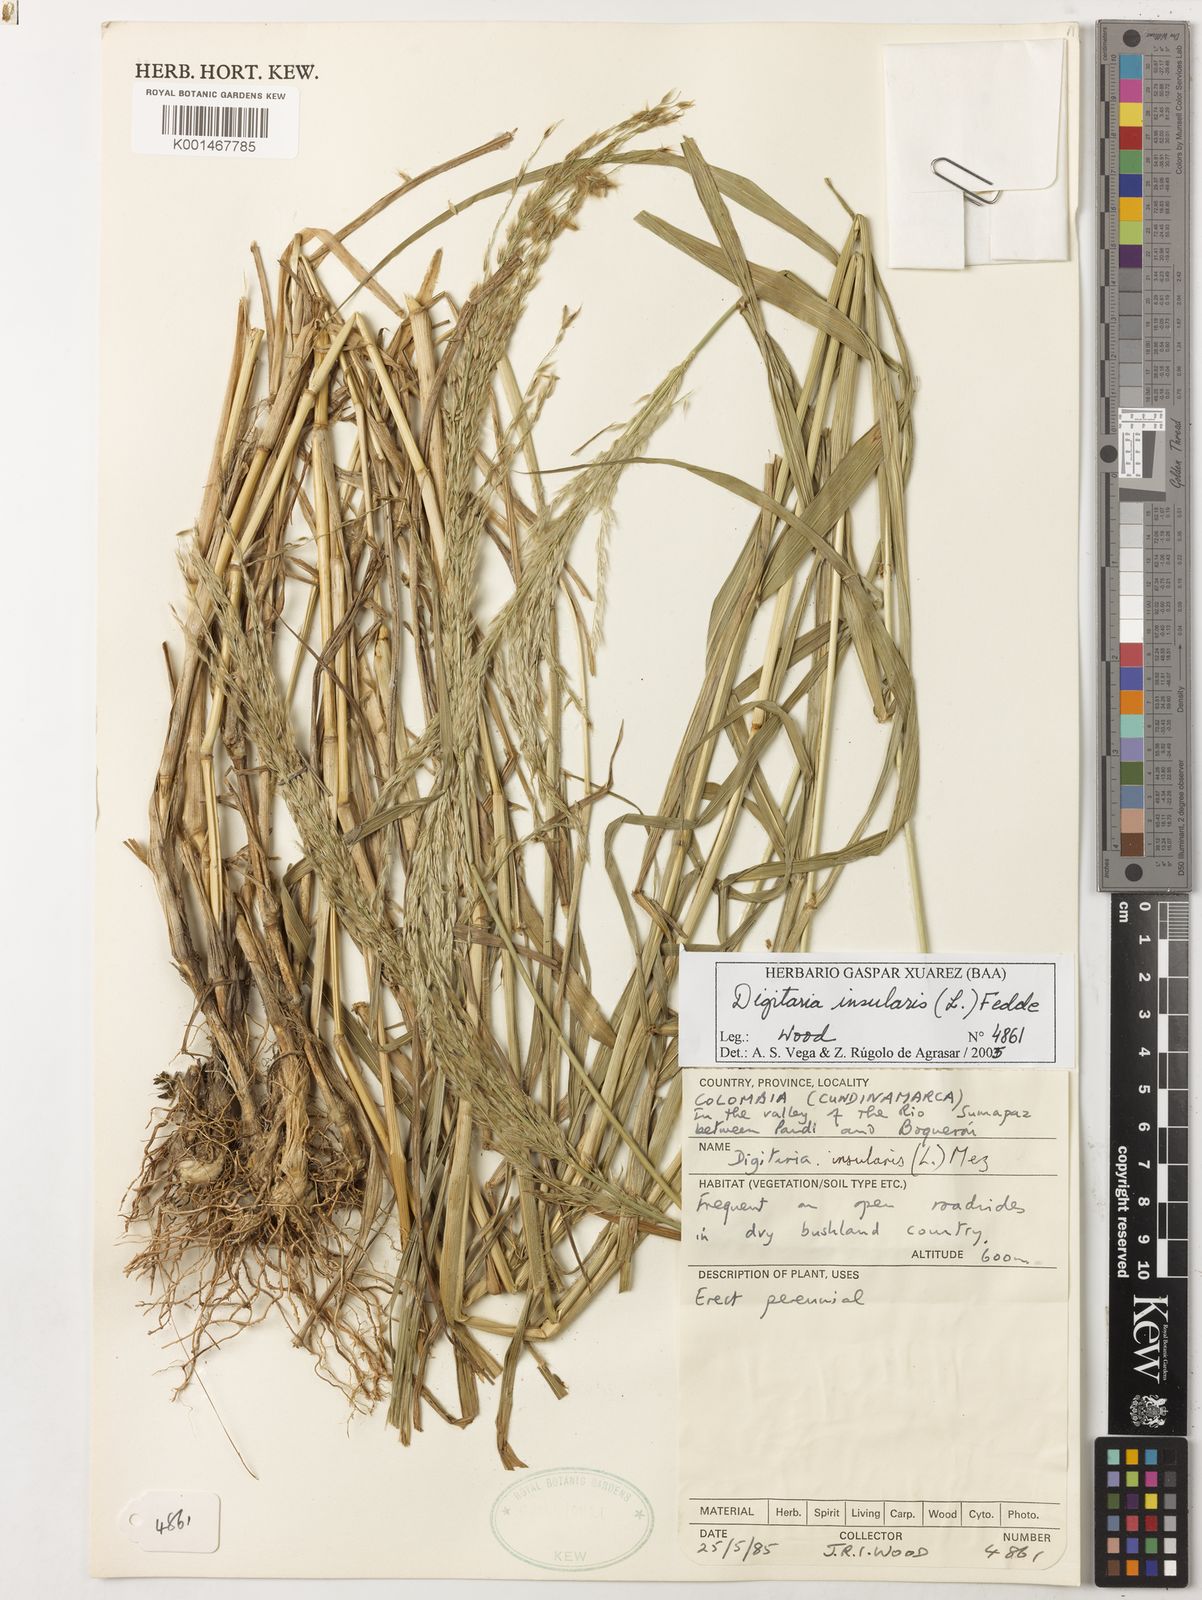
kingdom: Plantae
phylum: Tracheophyta
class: Liliopsida
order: Poales
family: Poaceae
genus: Digitaria
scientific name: Digitaria
